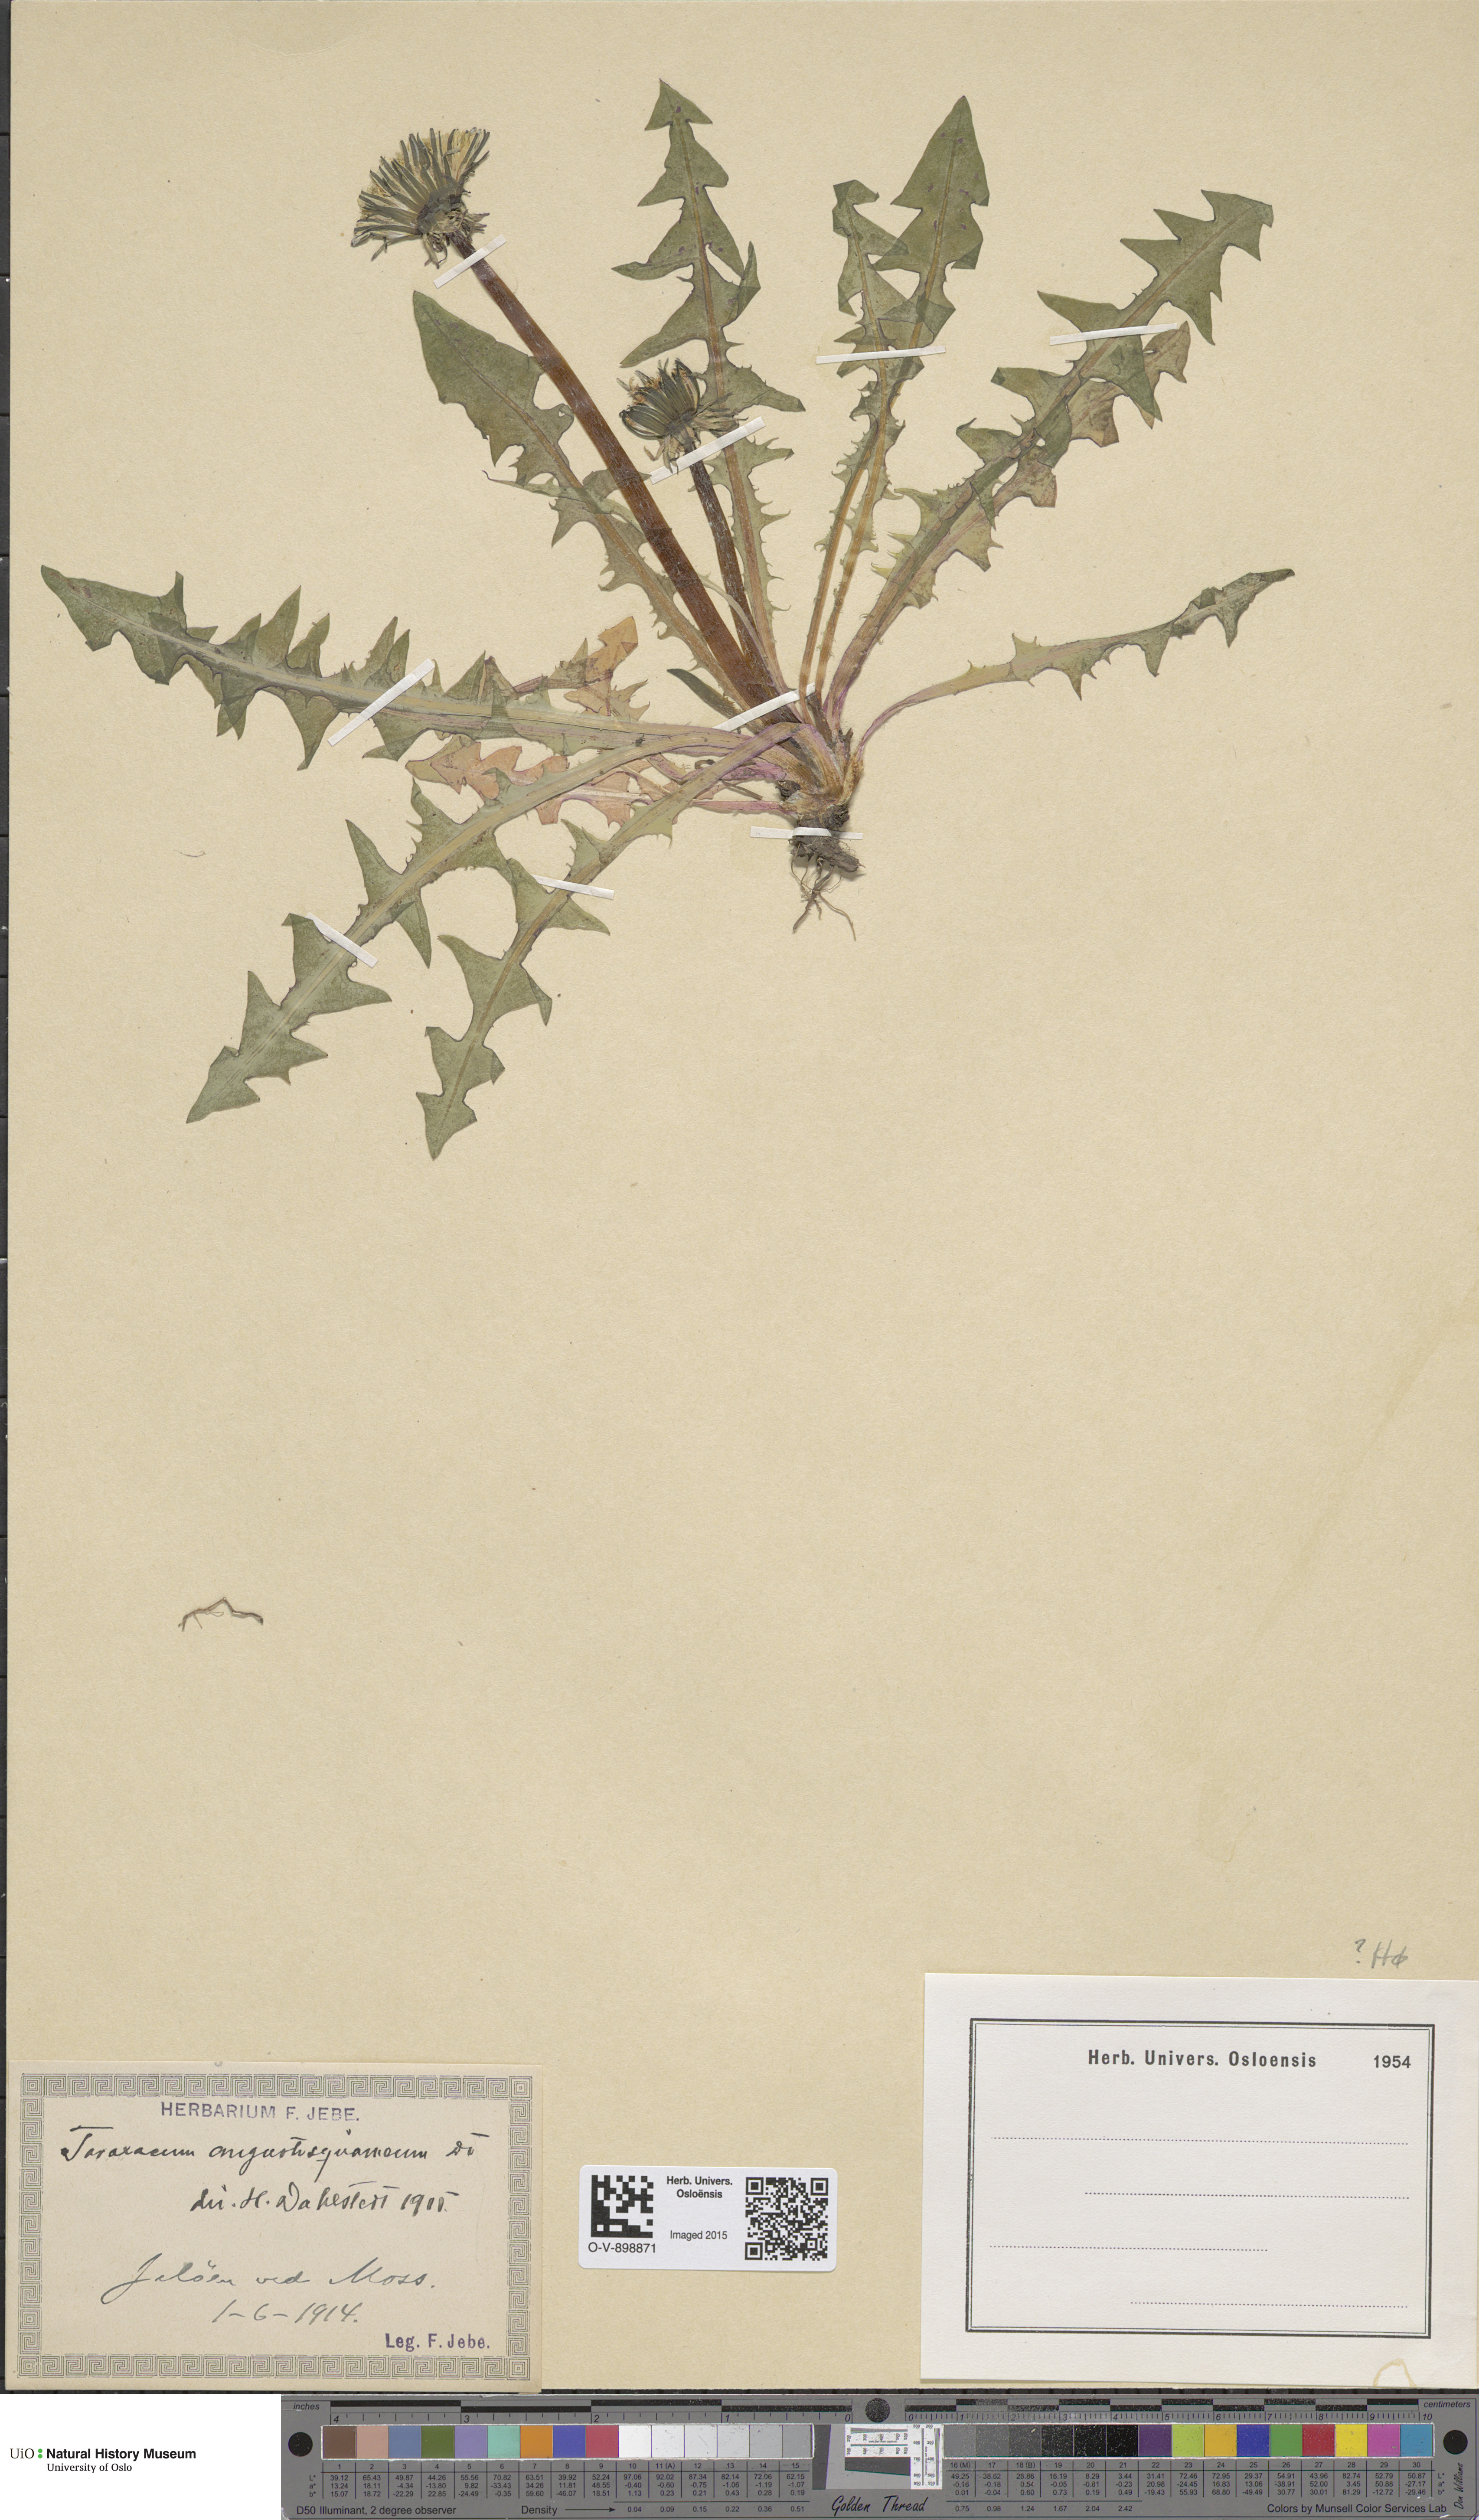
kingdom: Plantae
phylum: Tracheophyta
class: Magnoliopsida
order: Asterales
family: Asteraceae
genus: Taraxacum
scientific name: Taraxacum angustisquameum
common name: Multilobed dandelion
